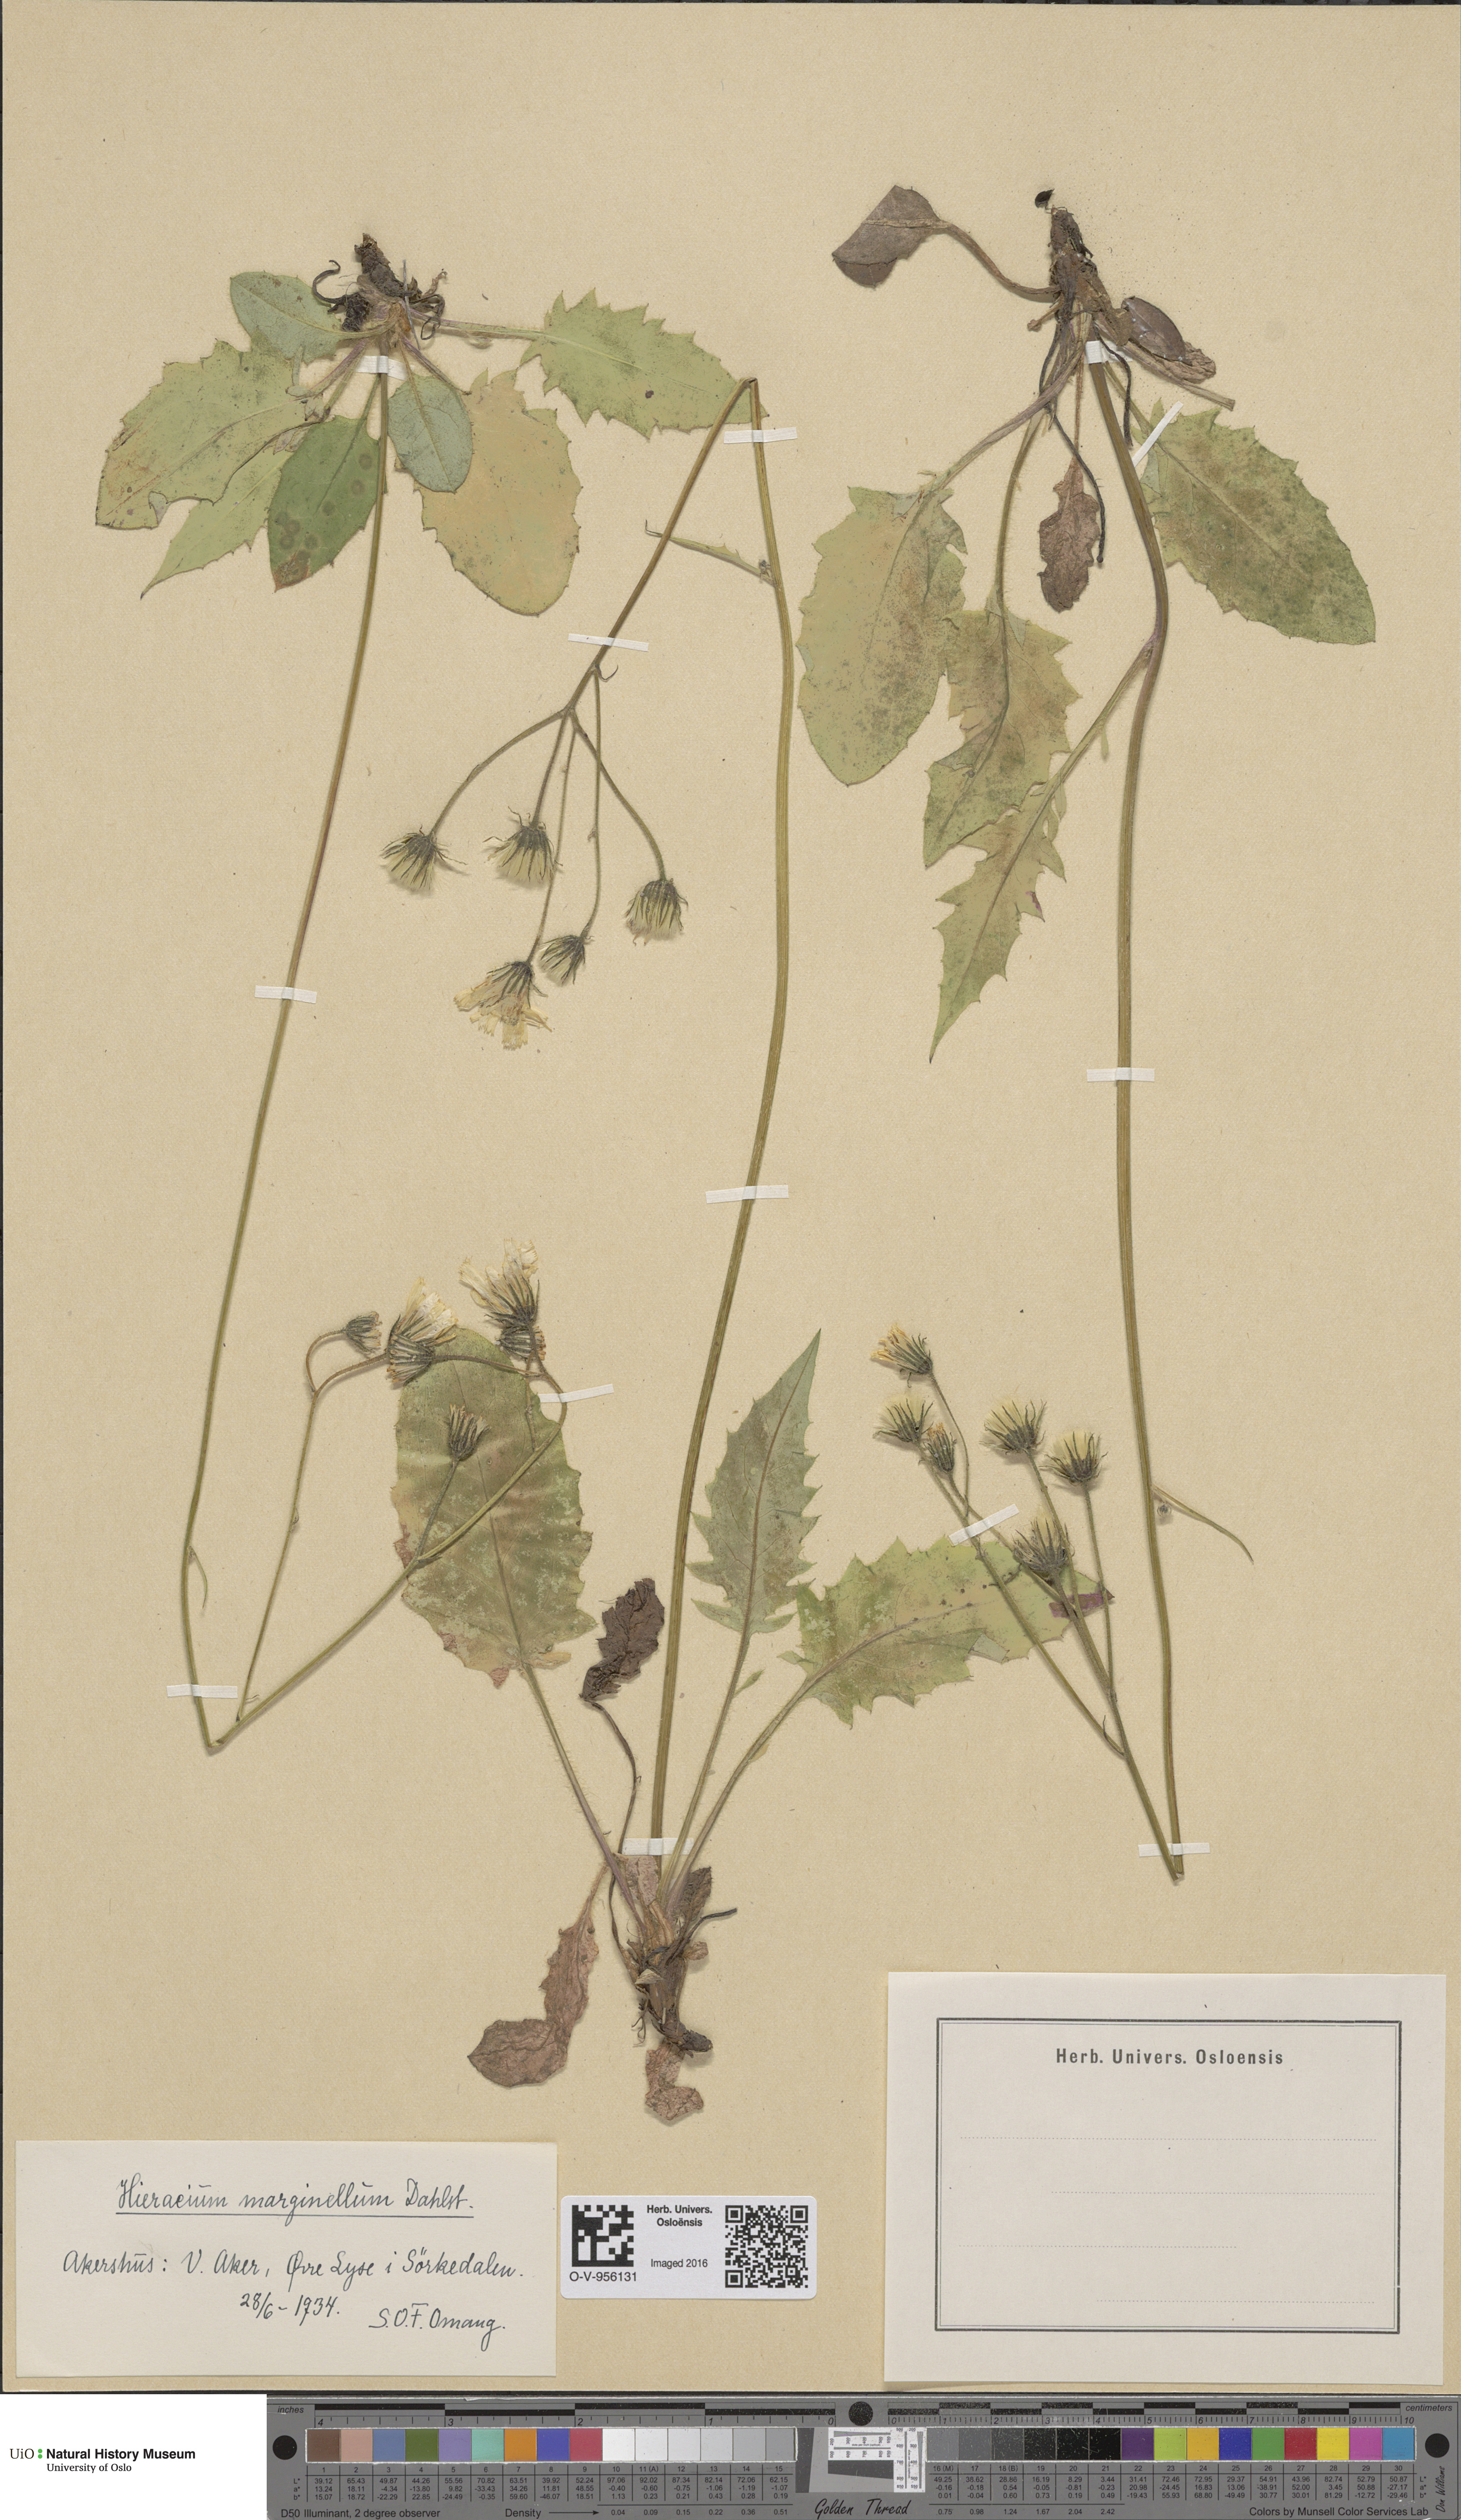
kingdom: Plantae
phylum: Tracheophyta
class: Magnoliopsida
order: Asterales
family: Asteraceae
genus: Hieracium
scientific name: Hieracium marginellum
